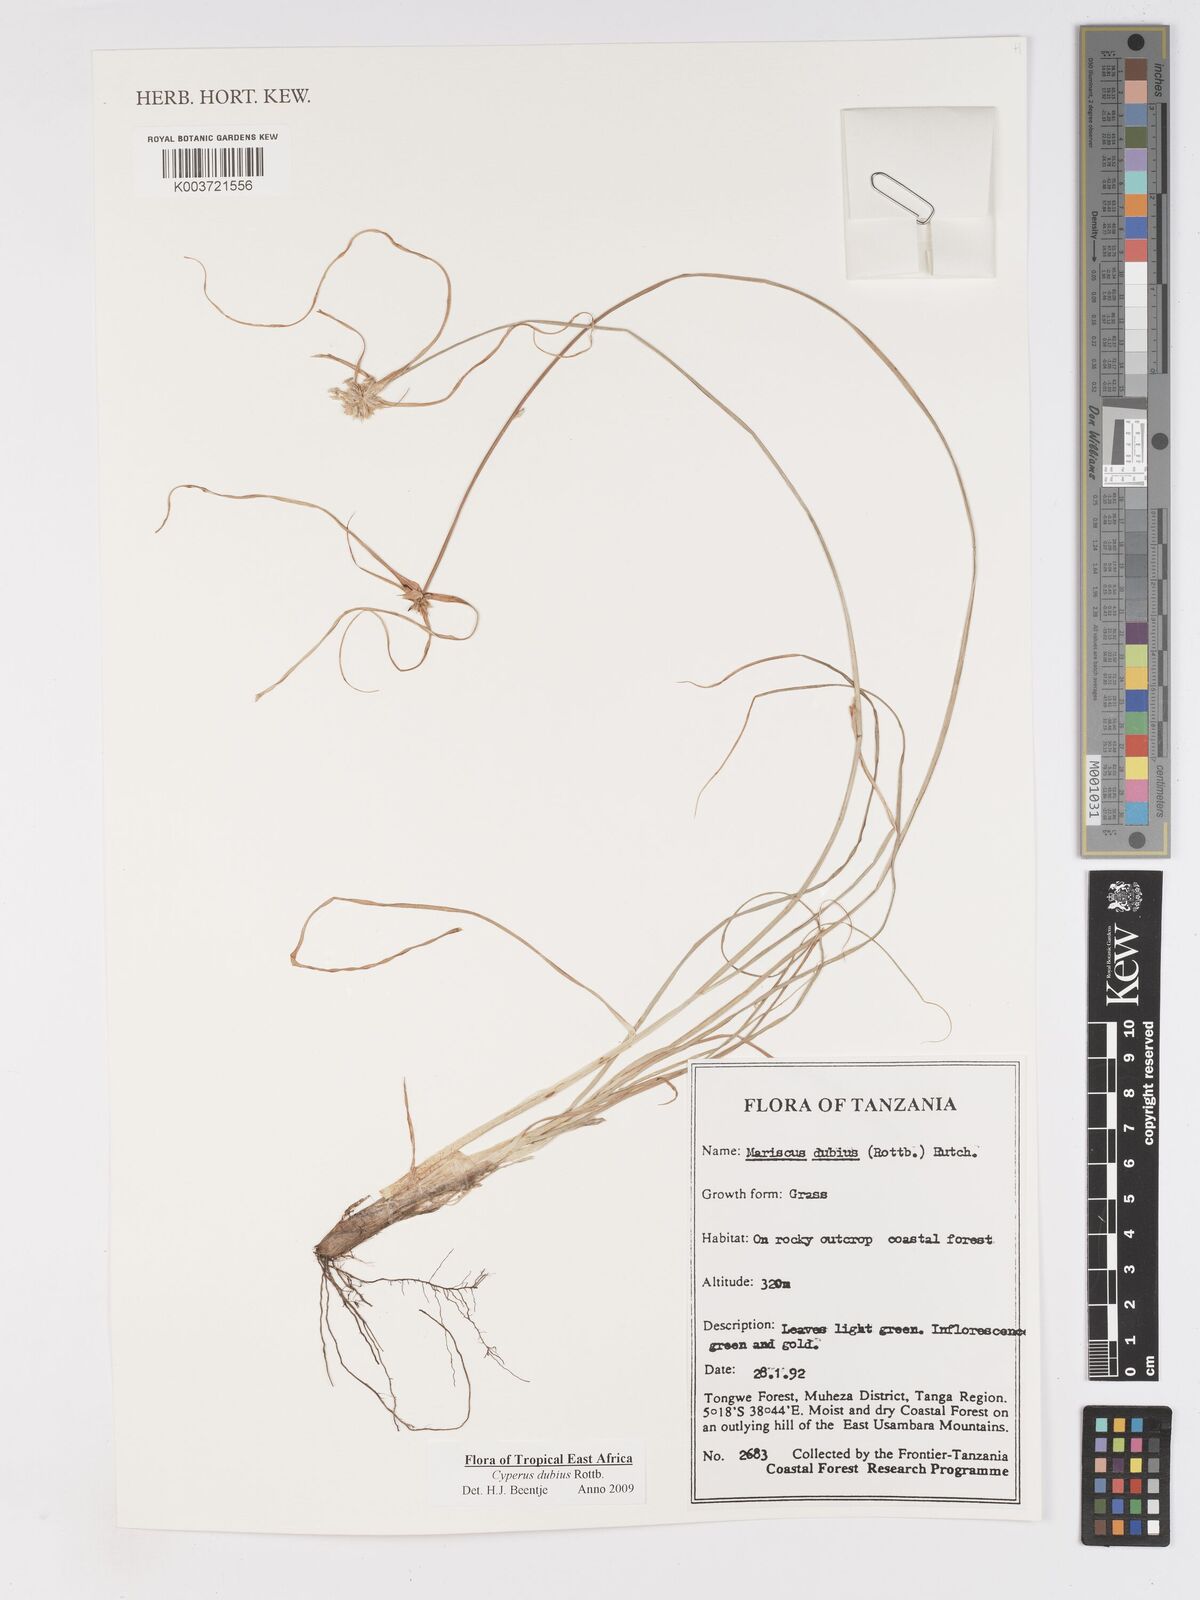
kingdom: Plantae
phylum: Tracheophyta
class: Liliopsida
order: Poales
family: Cyperaceae
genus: Cyperus
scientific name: Cyperus dubius
